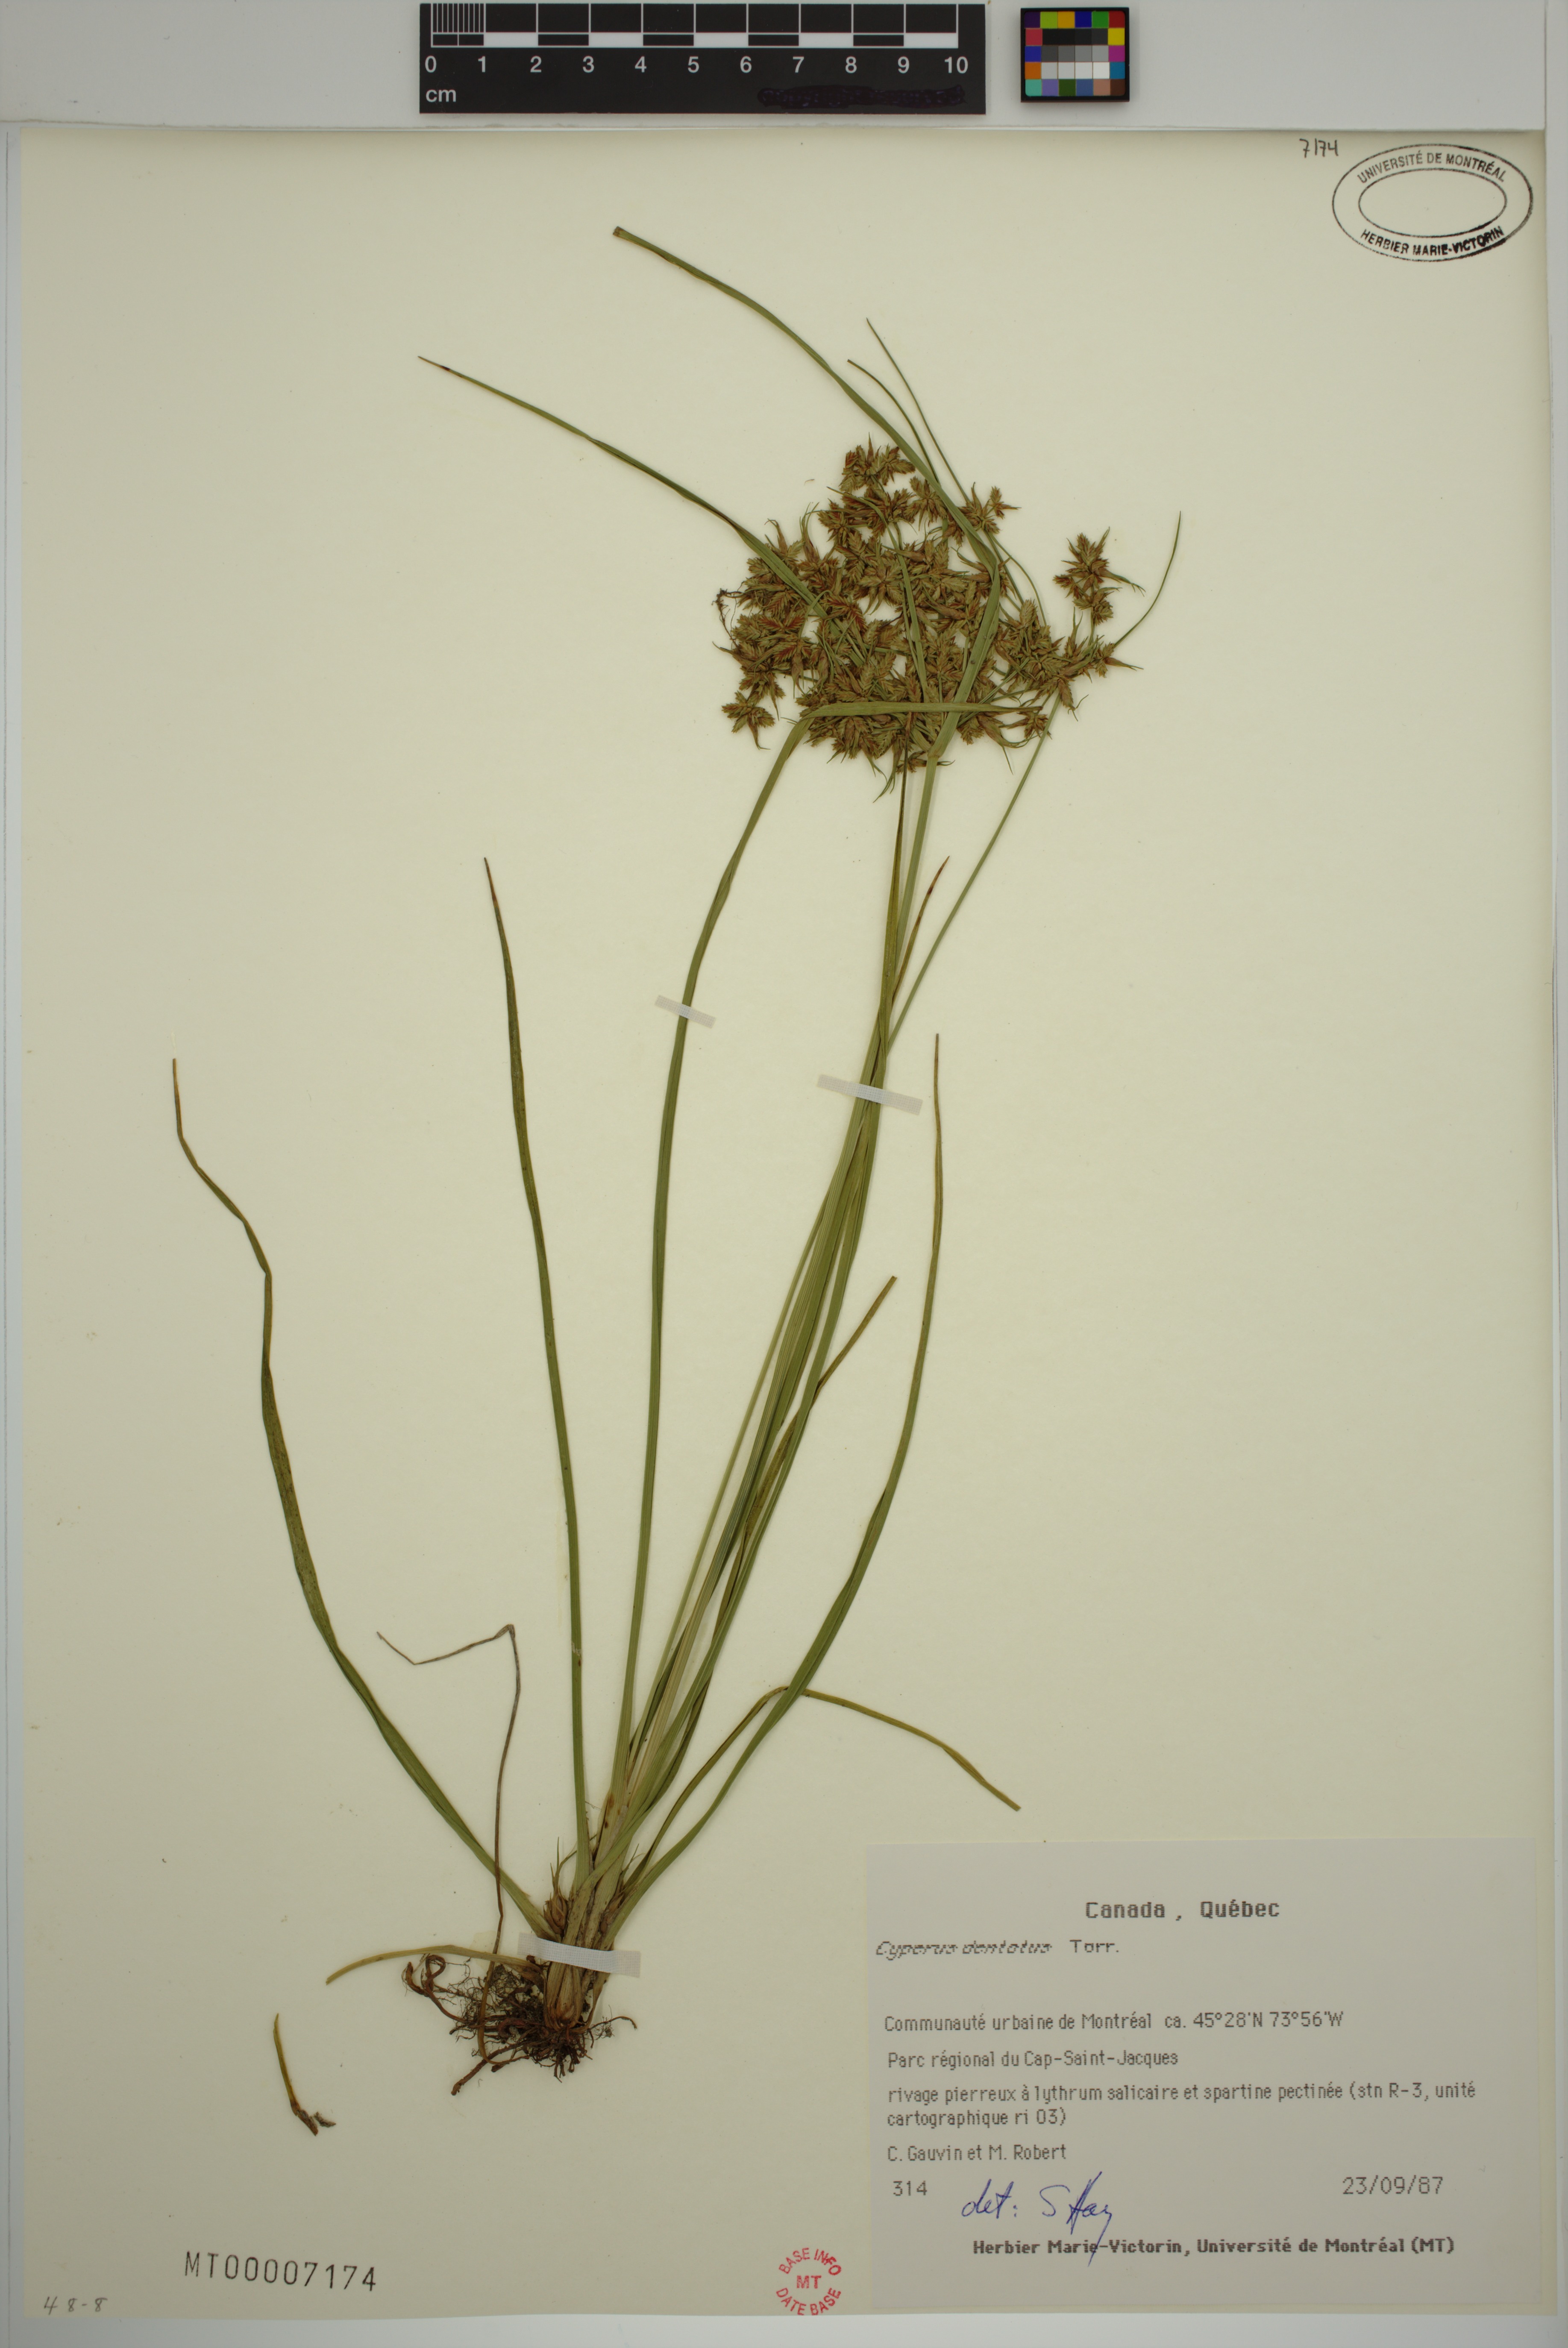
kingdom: Plantae
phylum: Tracheophyta
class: Liliopsida
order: Poales
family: Cyperaceae
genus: Cyperus
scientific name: Cyperus dentatus
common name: Dentate umbrella sedge
